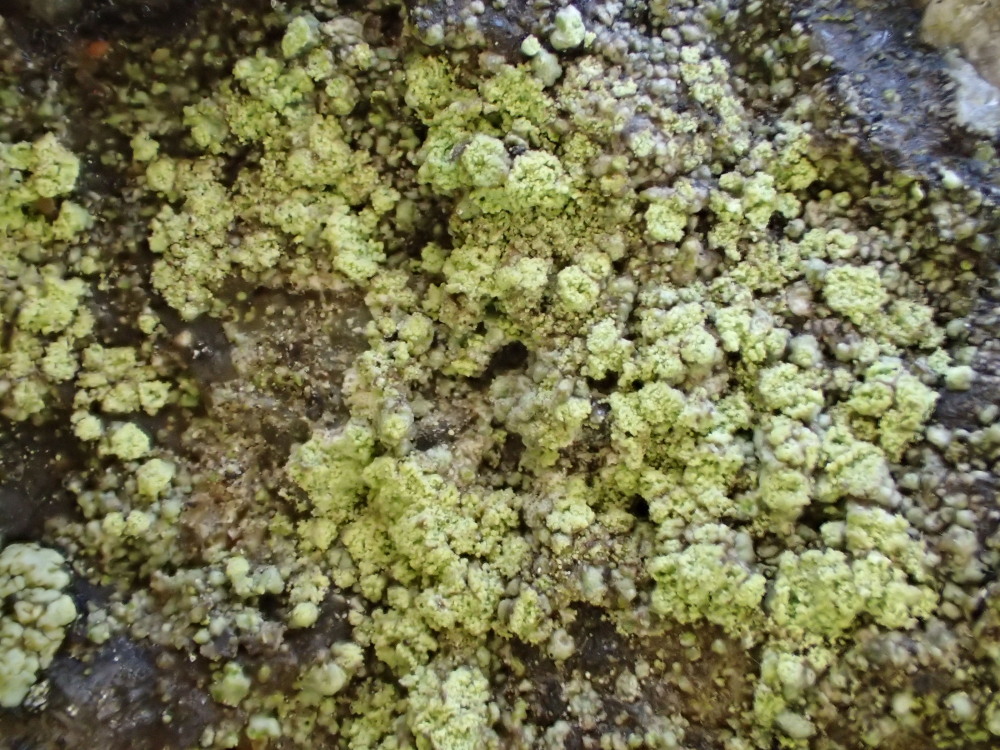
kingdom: Fungi
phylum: Ascomycota
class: Lecanoromycetes
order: Lecanorales
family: Lecanoraceae
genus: Lecidella
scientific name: Lecidella scabra
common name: skurvet skivelav
